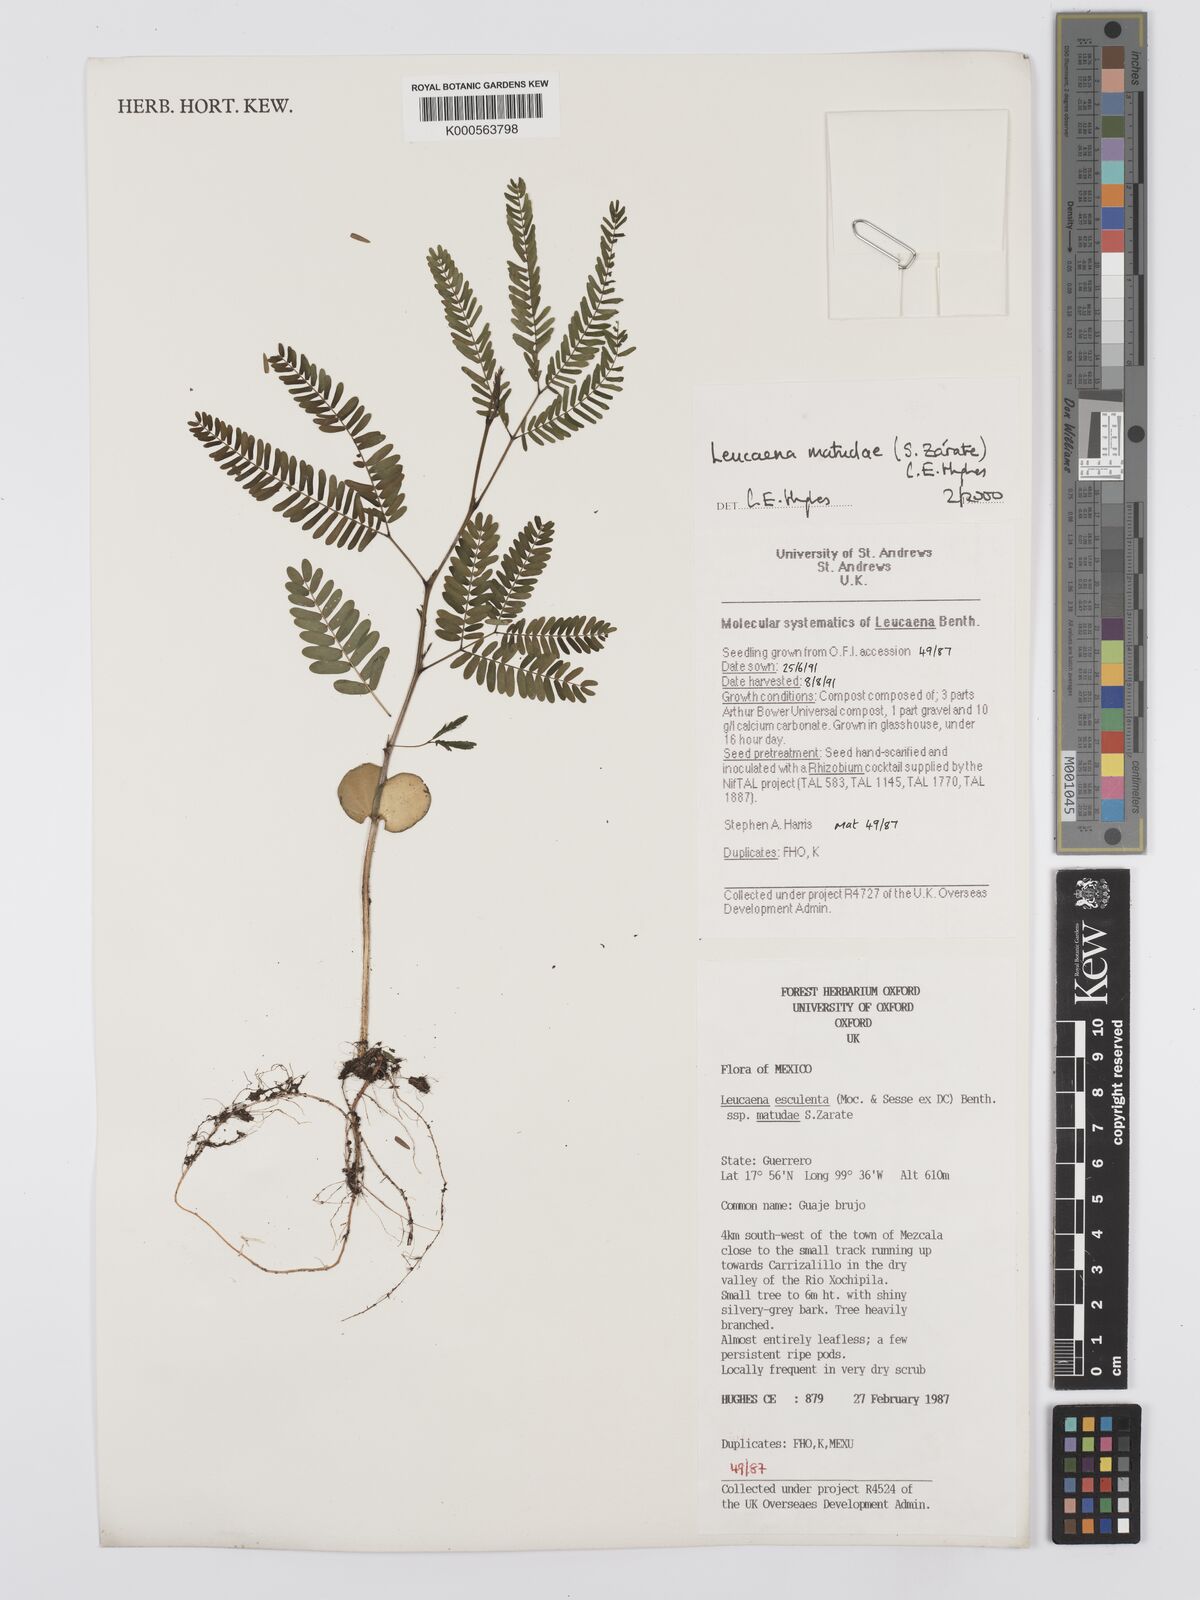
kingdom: Plantae
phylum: Tracheophyta
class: Magnoliopsida
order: Fabales
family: Fabaceae
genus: Leucaena
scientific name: Leucaena
